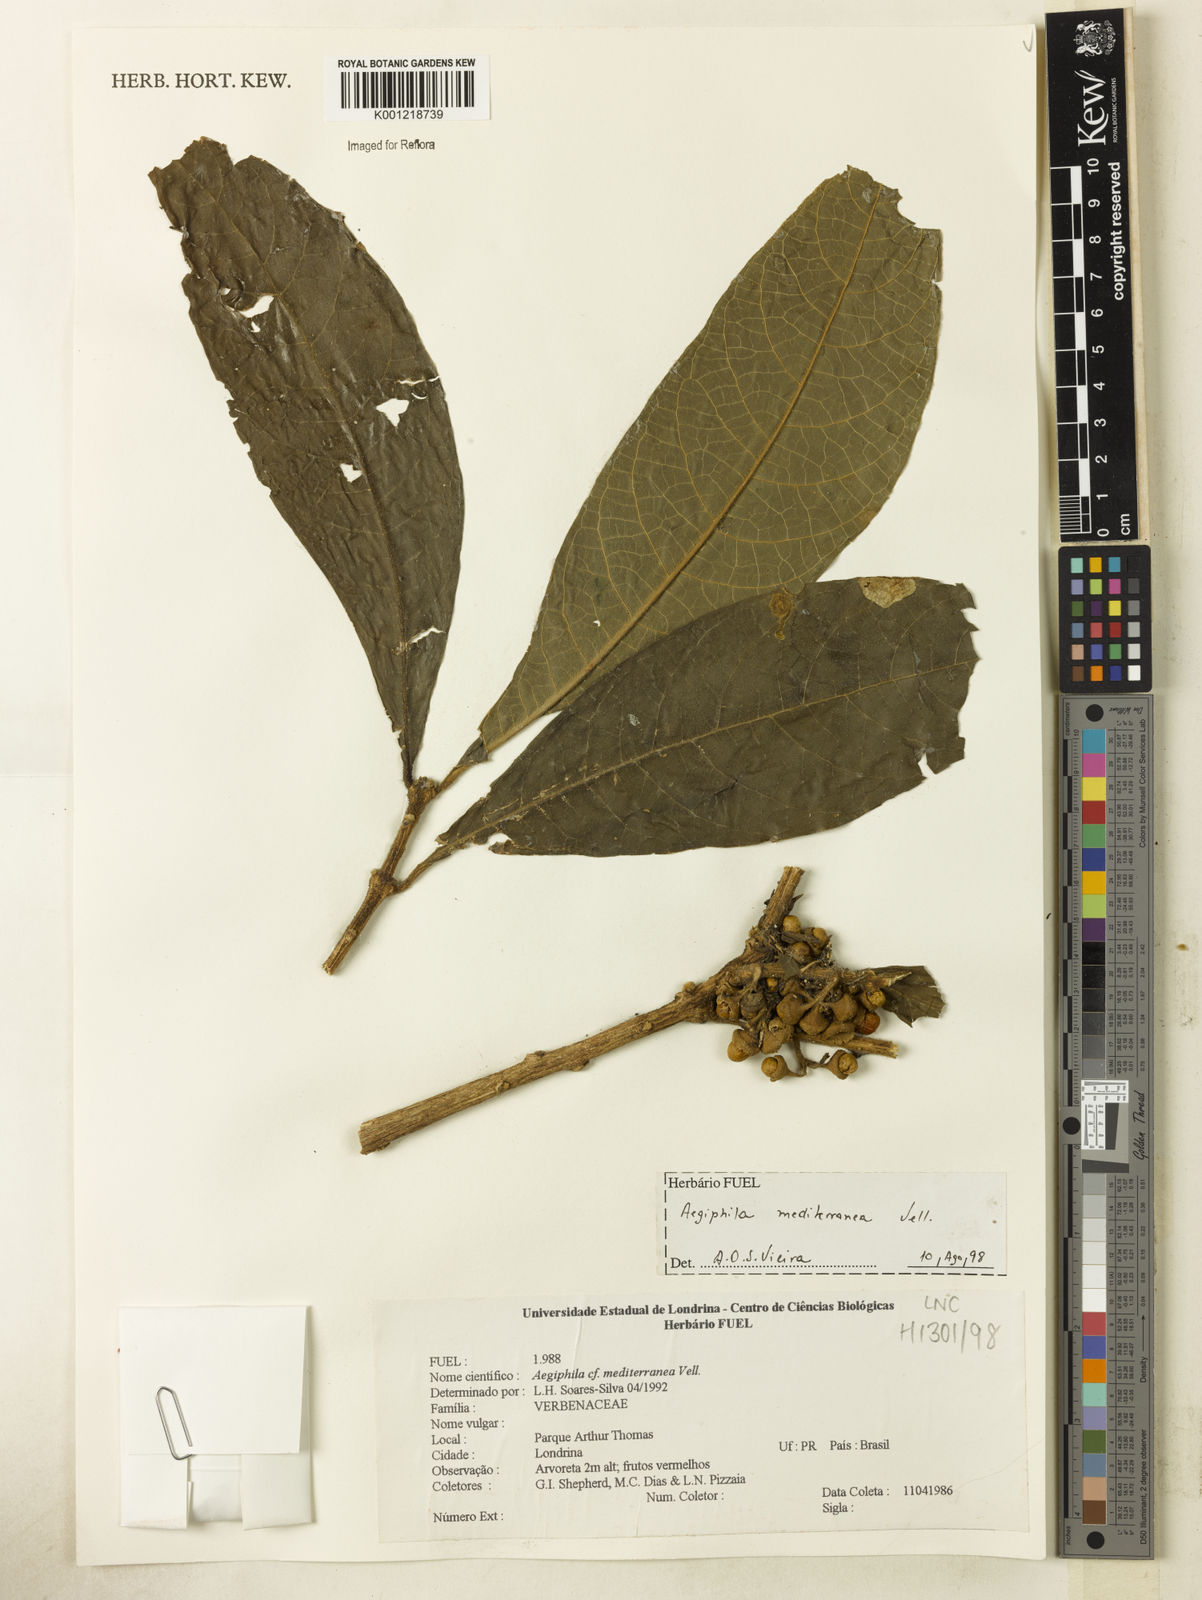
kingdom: Plantae
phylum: Tracheophyta
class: Magnoliopsida
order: Lamiales
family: Lamiaceae
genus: Aegiphila
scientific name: Aegiphila mediterranea
